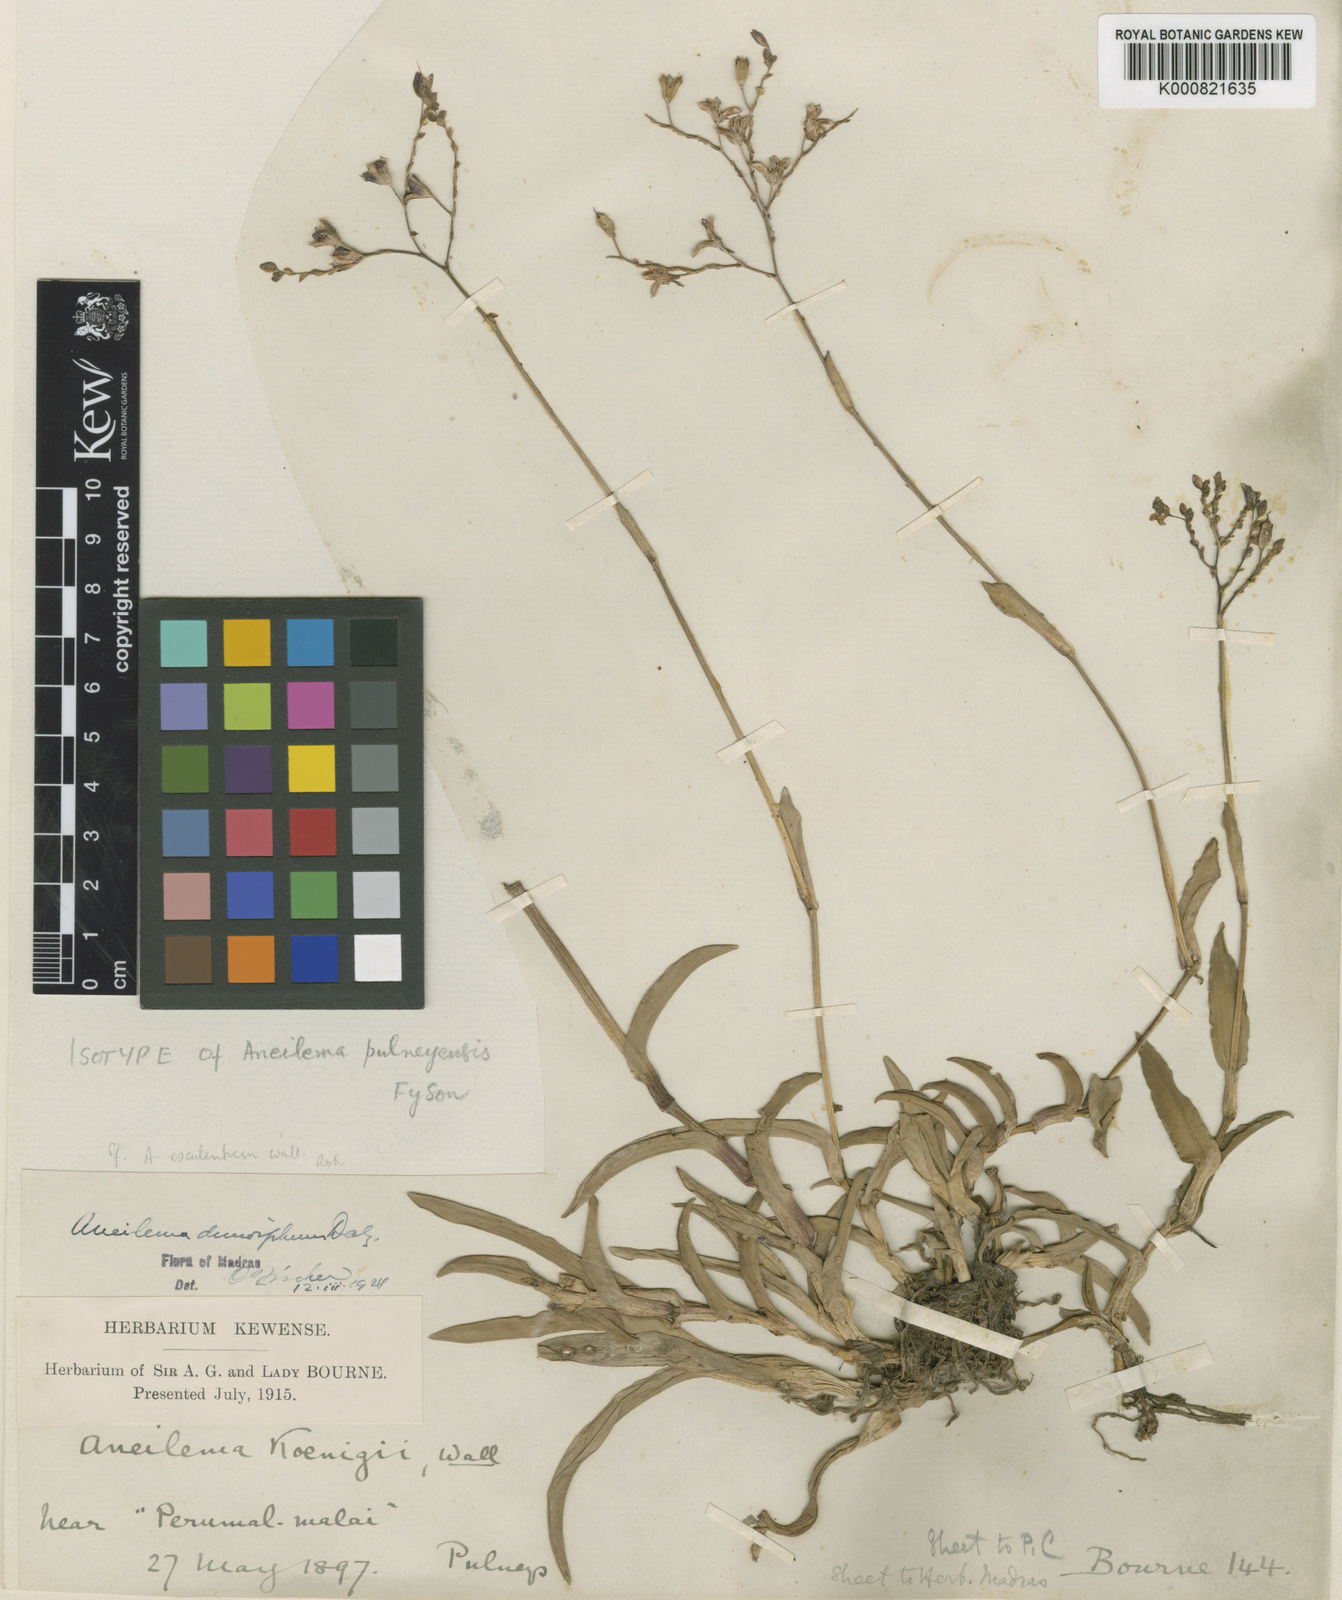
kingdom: Plantae
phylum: Tracheophyta
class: Liliopsida
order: Commelinales
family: Commelinaceae
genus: Murdannia
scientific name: Murdannia esculenta
